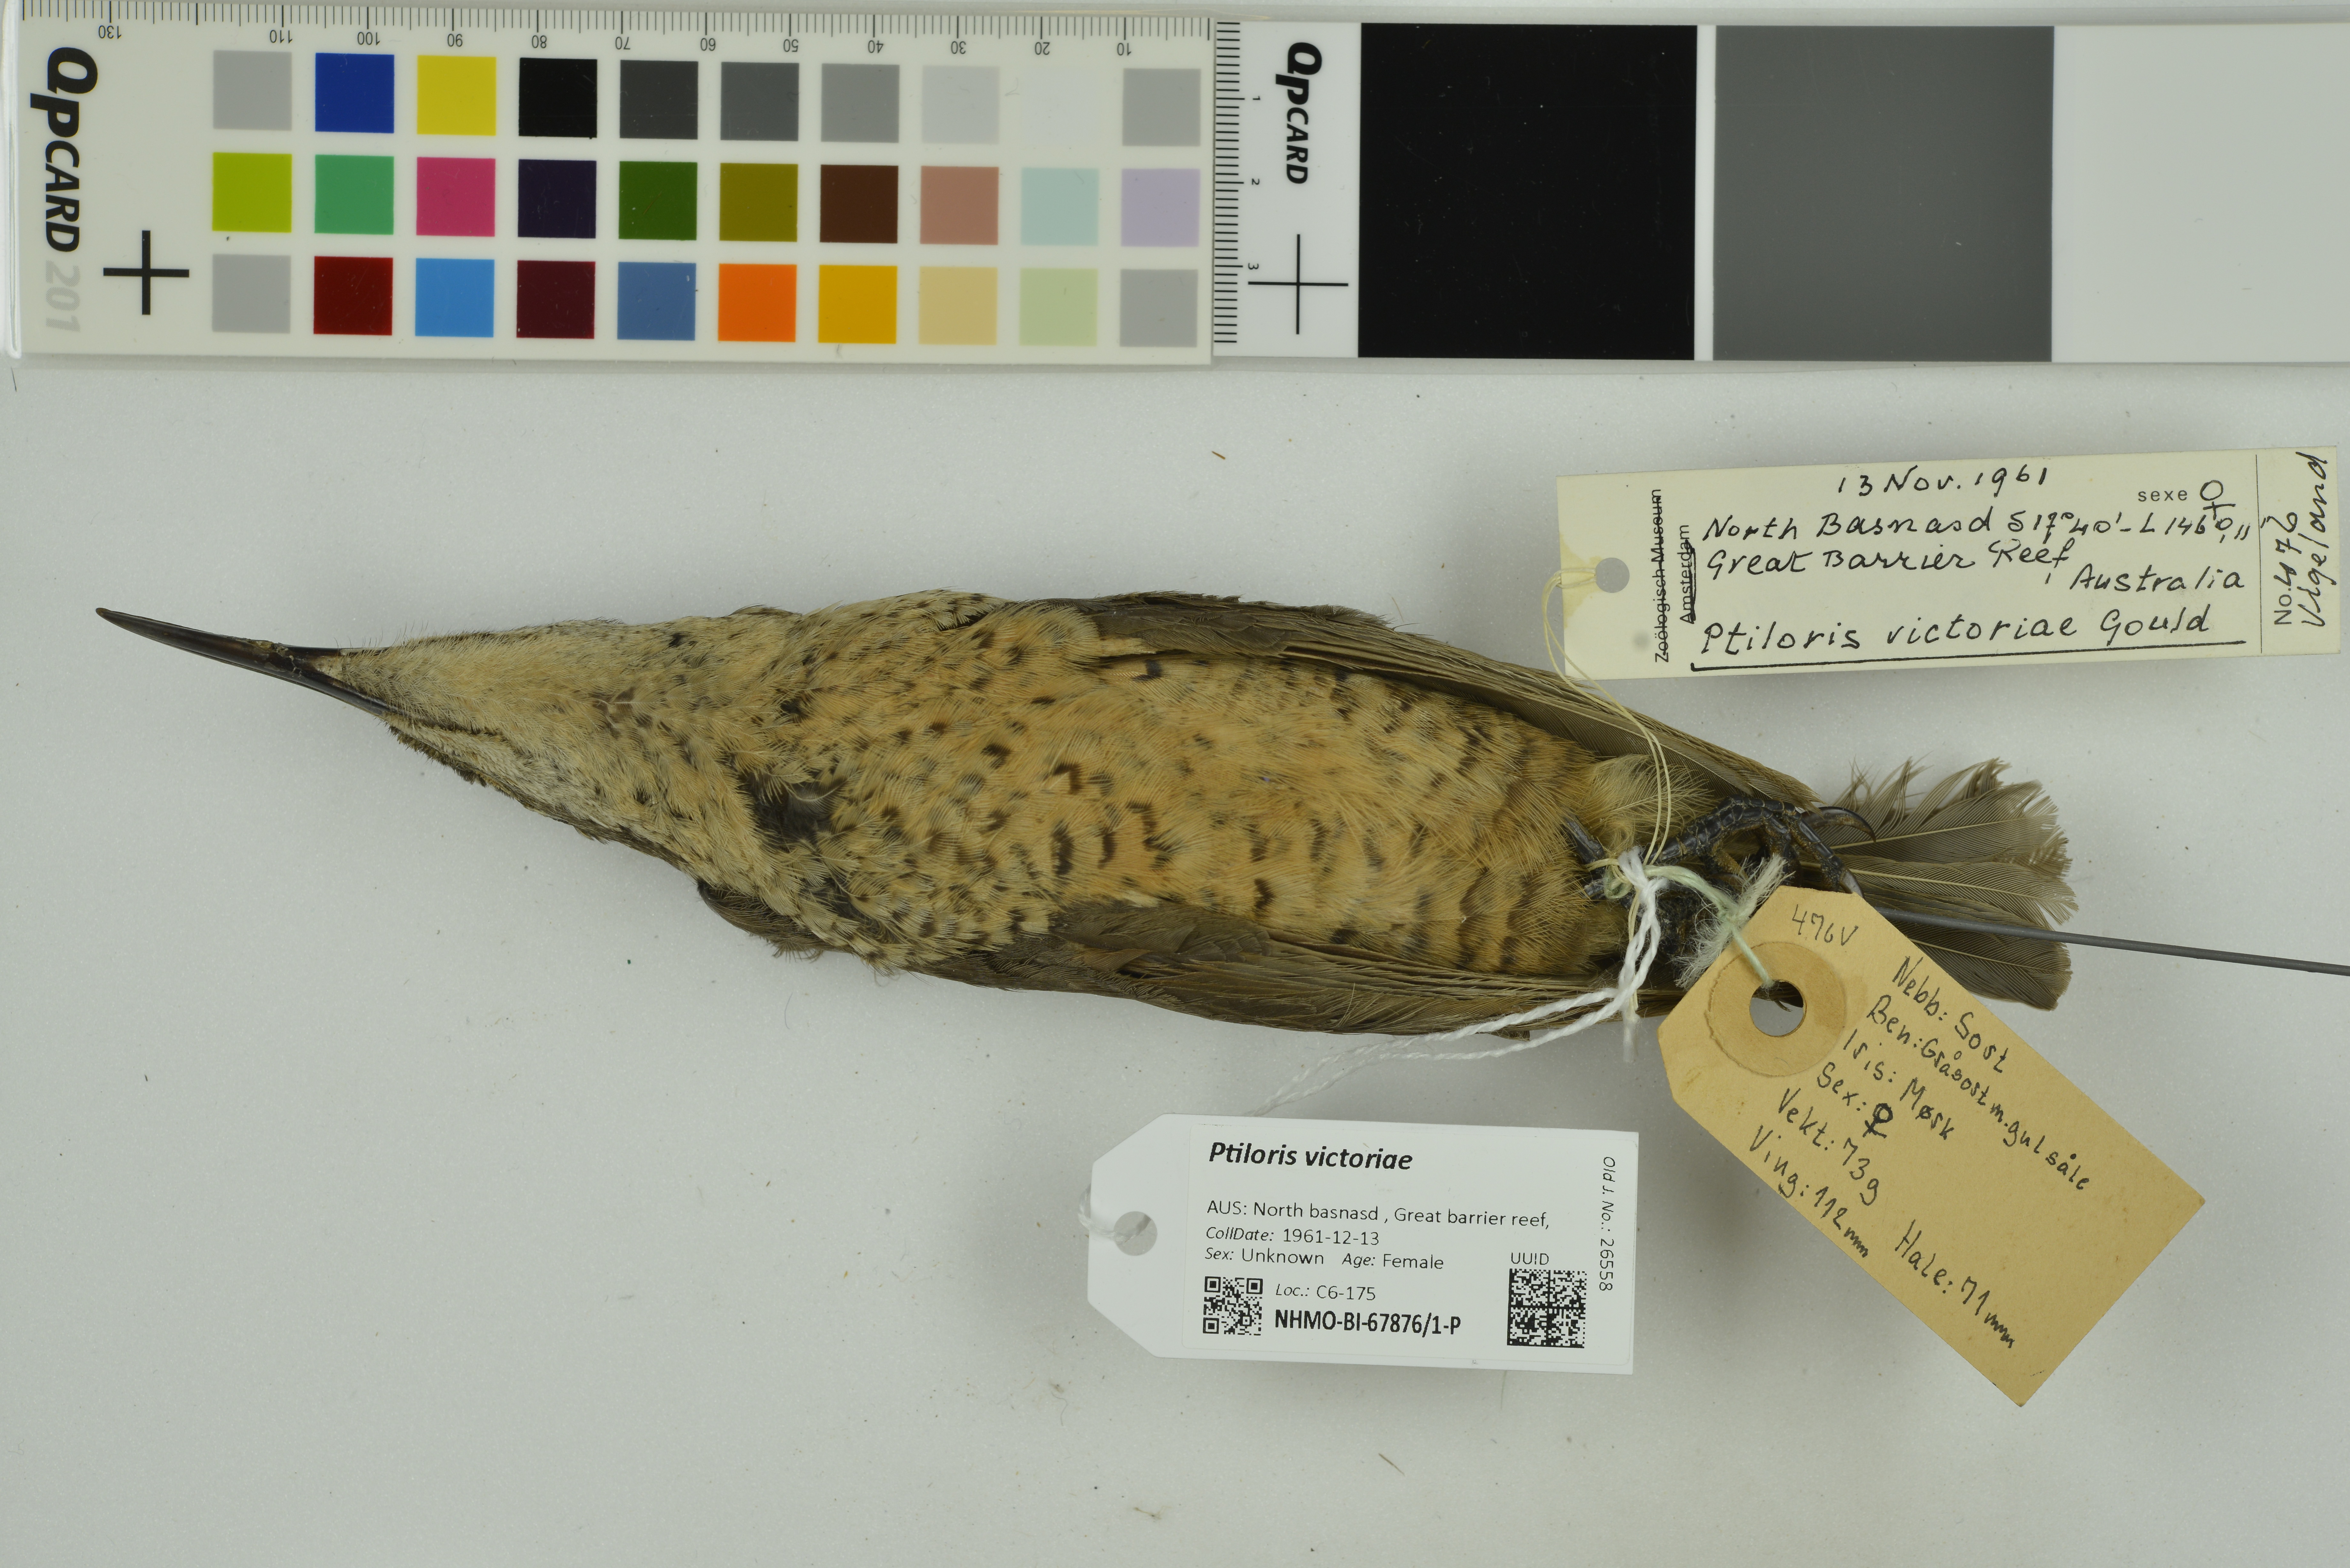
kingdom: Animalia
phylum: Chordata
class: Aves
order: Passeriformes
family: Paradisaeidae
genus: Ptiloris
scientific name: Ptiloris victoriae
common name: Victoria's riflebird
